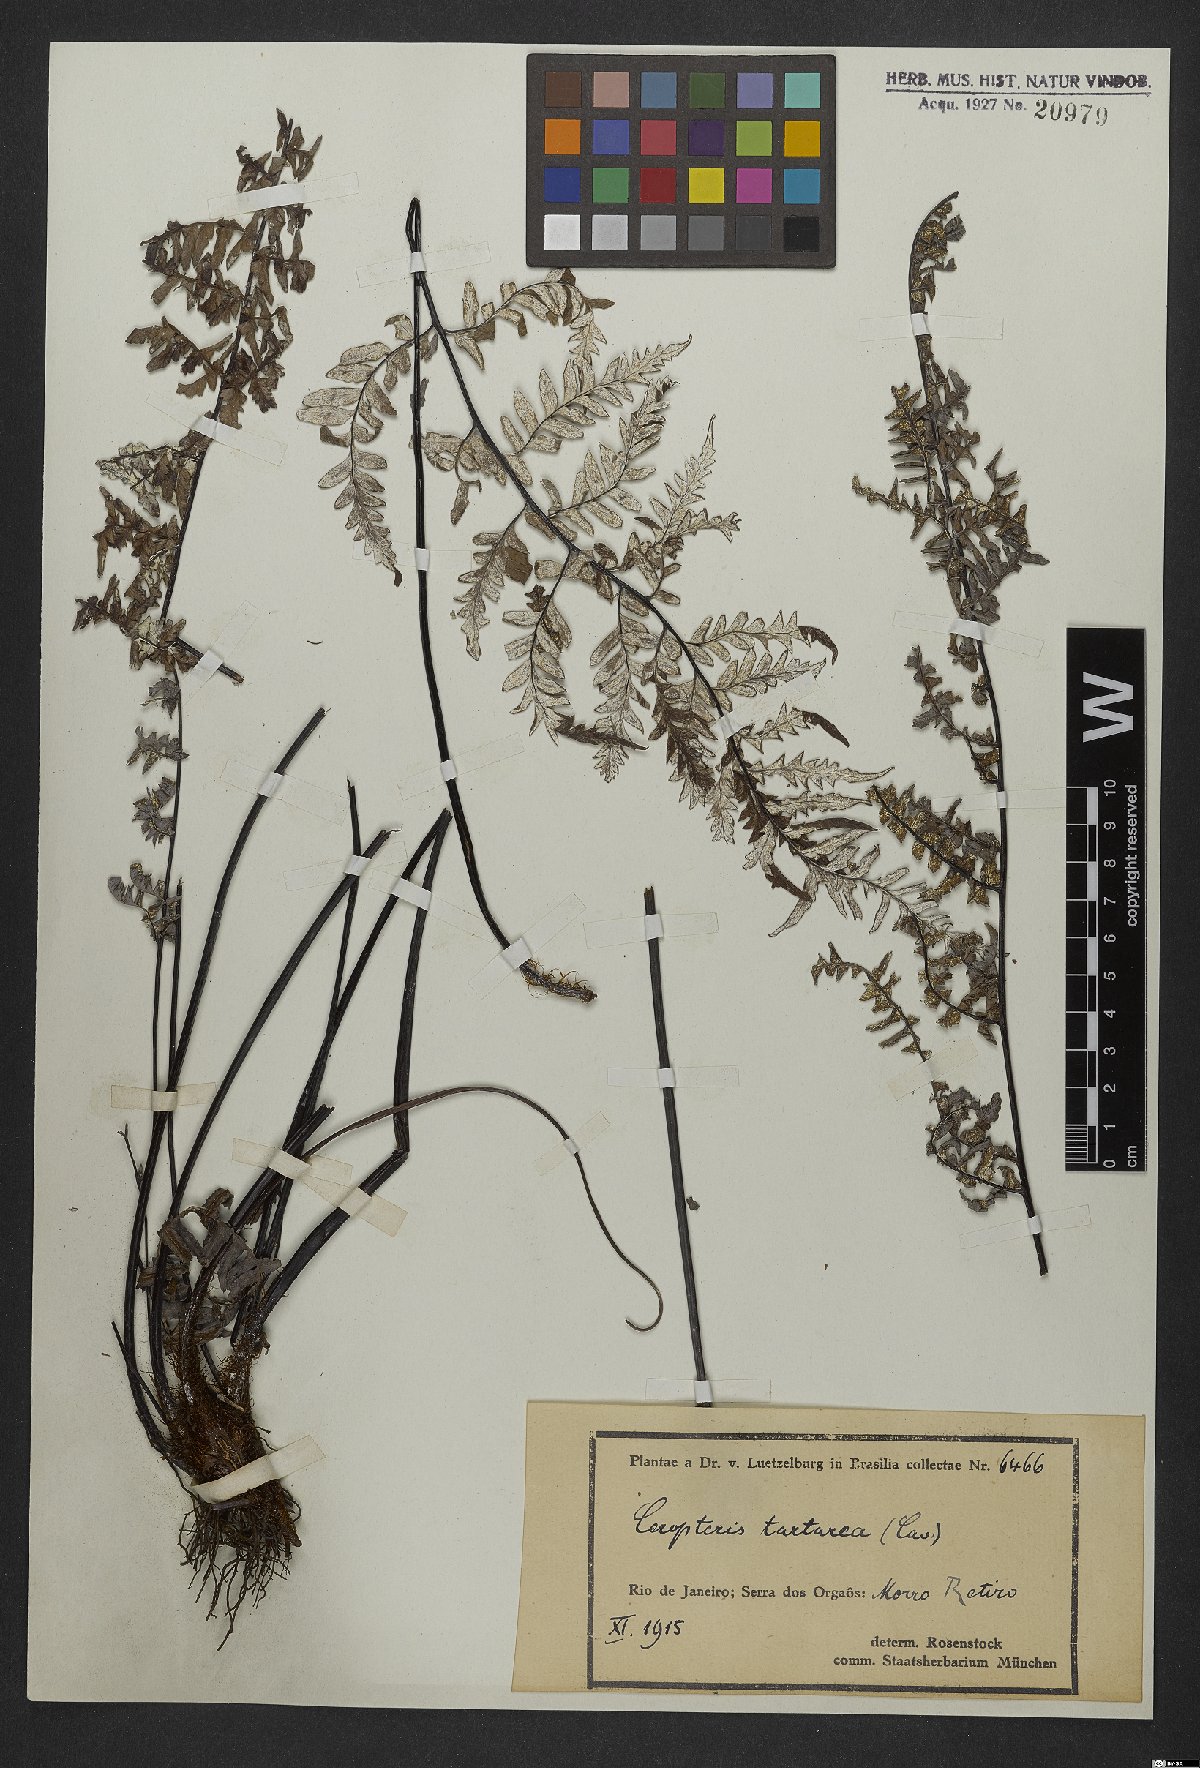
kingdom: Plantae
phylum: Tracheophyta
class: Polypodiopsida
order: Polypodiales
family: Pteridaceae
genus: Pityrogramma
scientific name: Pityrogramma ebenea
